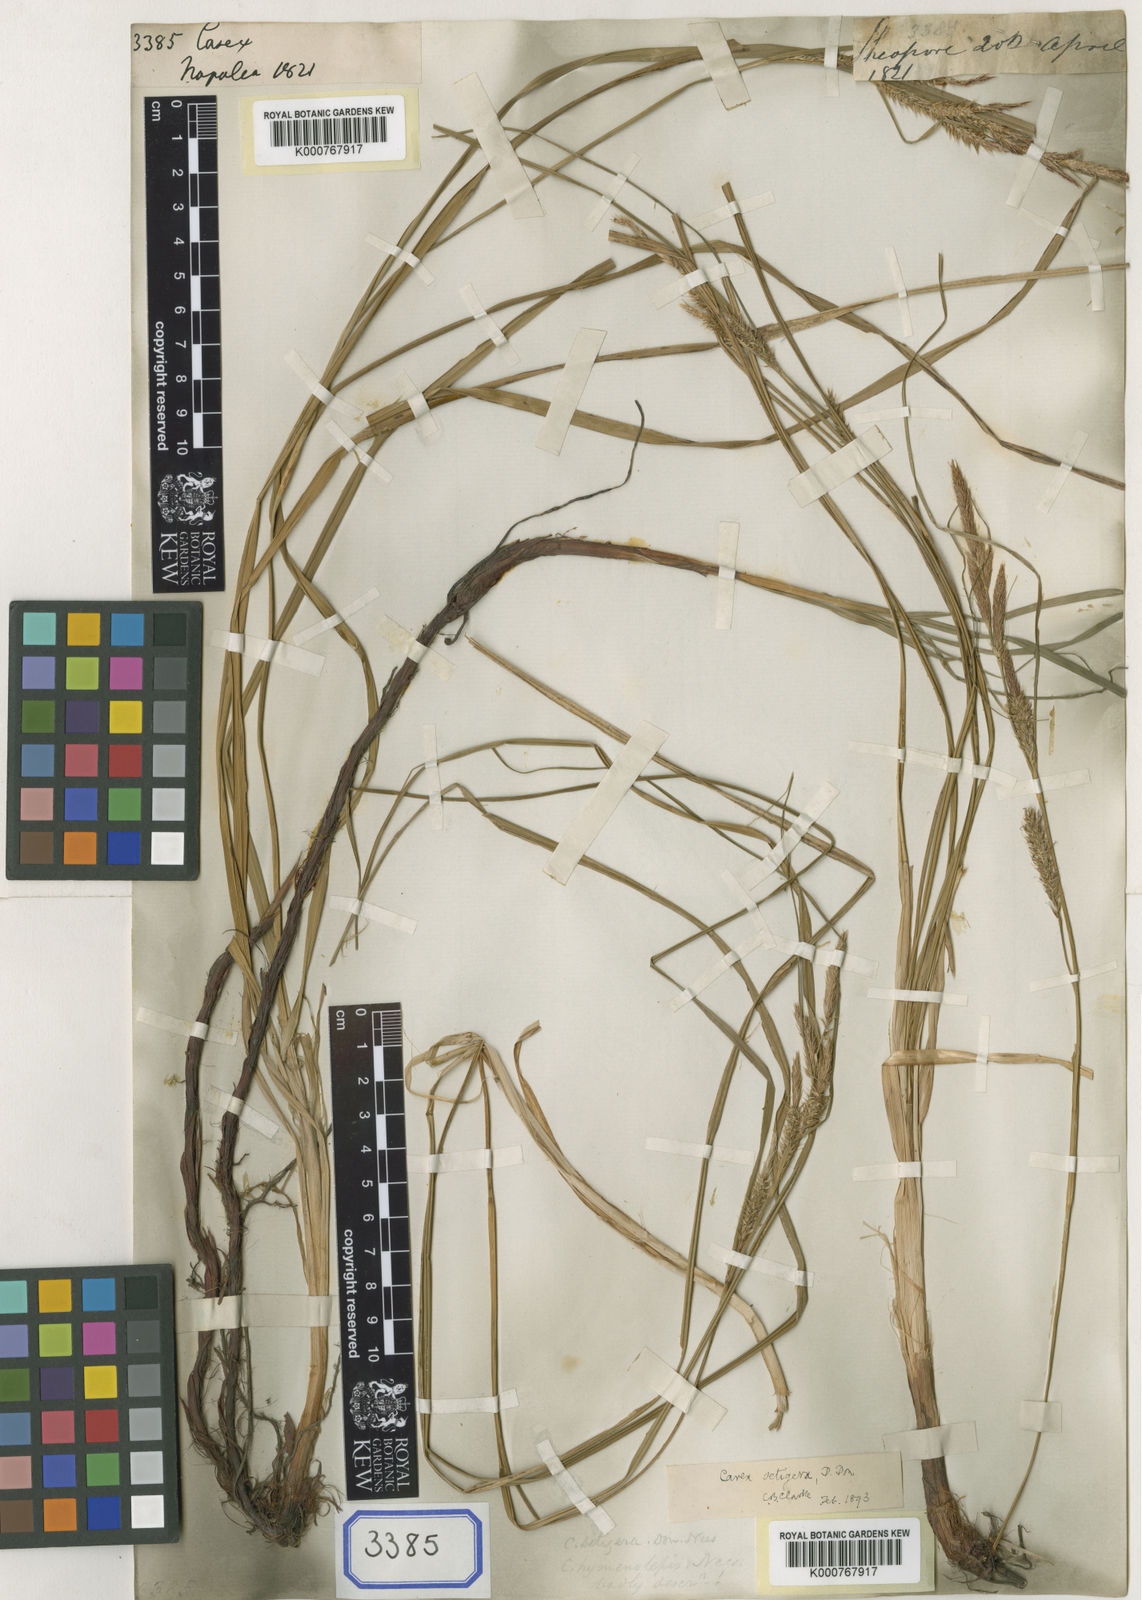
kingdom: Plantae
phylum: Tracheophyta
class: Liliopsida
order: Poales
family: Cyperaceae
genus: Carex
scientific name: Carex
